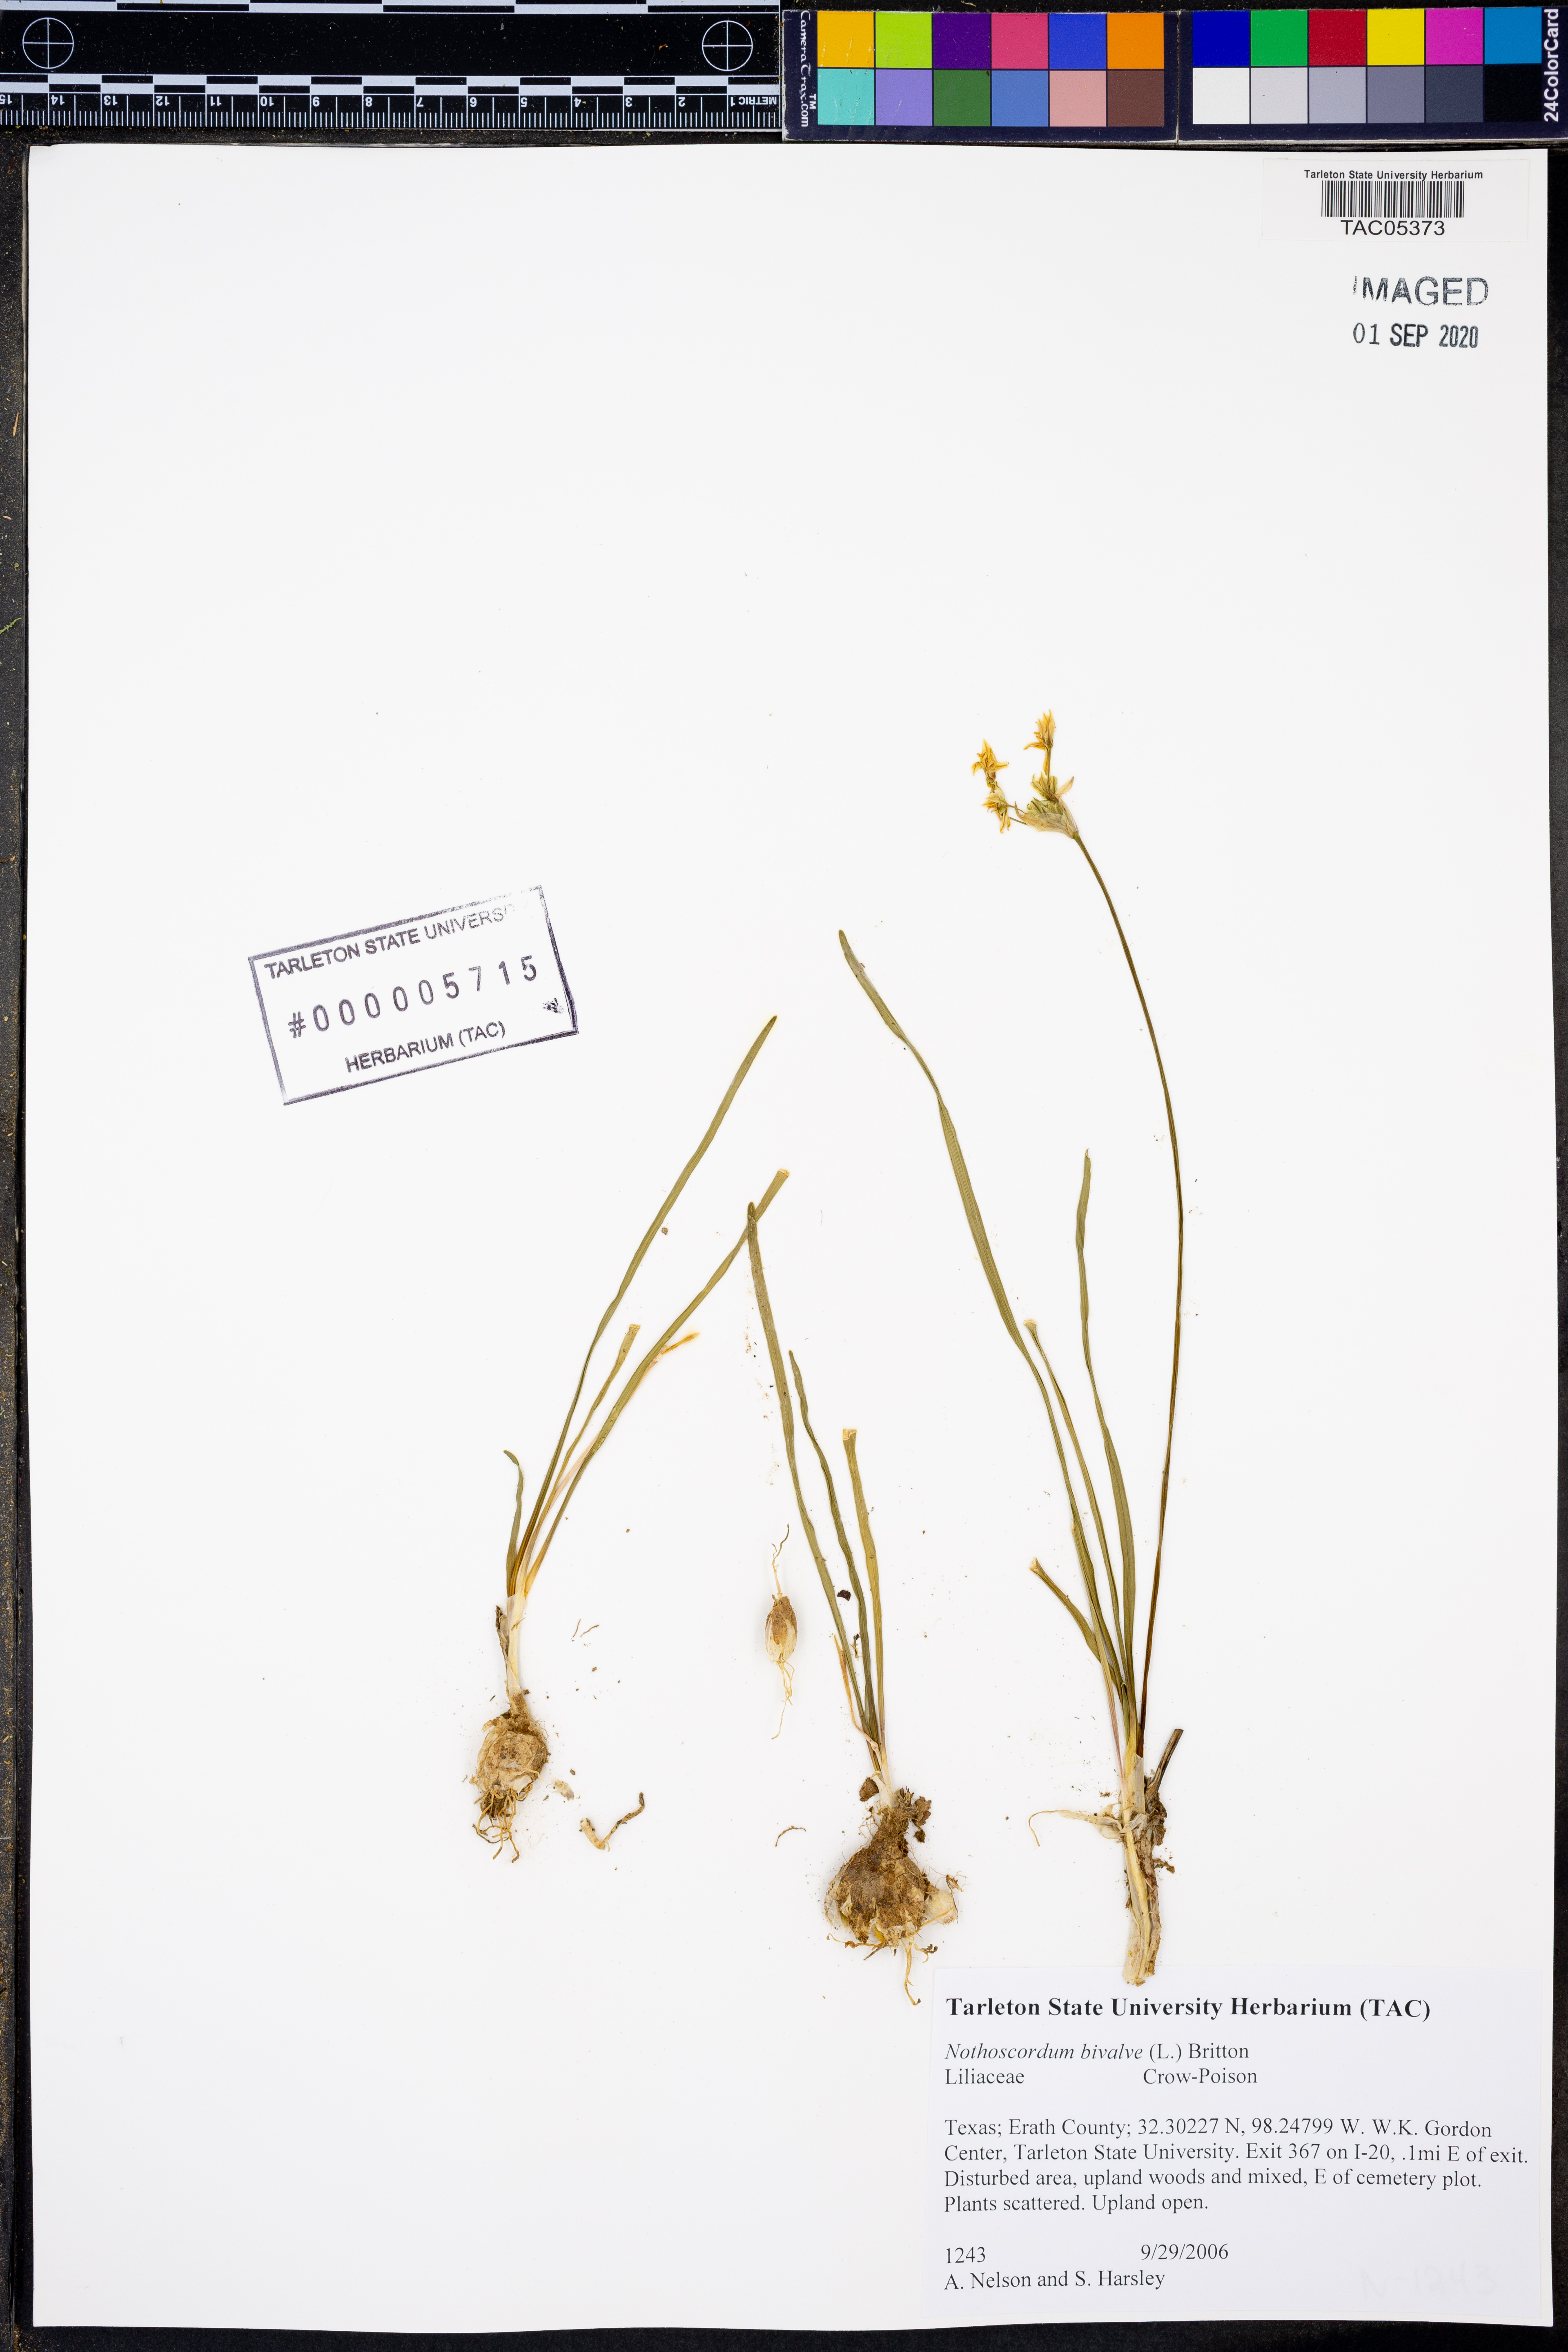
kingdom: Plantae
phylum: Tracheophyta
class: Liliopsida
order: Asparagales
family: Amaryllidaceae
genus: Nothoscordum
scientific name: Nothoscordum bivalve
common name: Crow-poison
